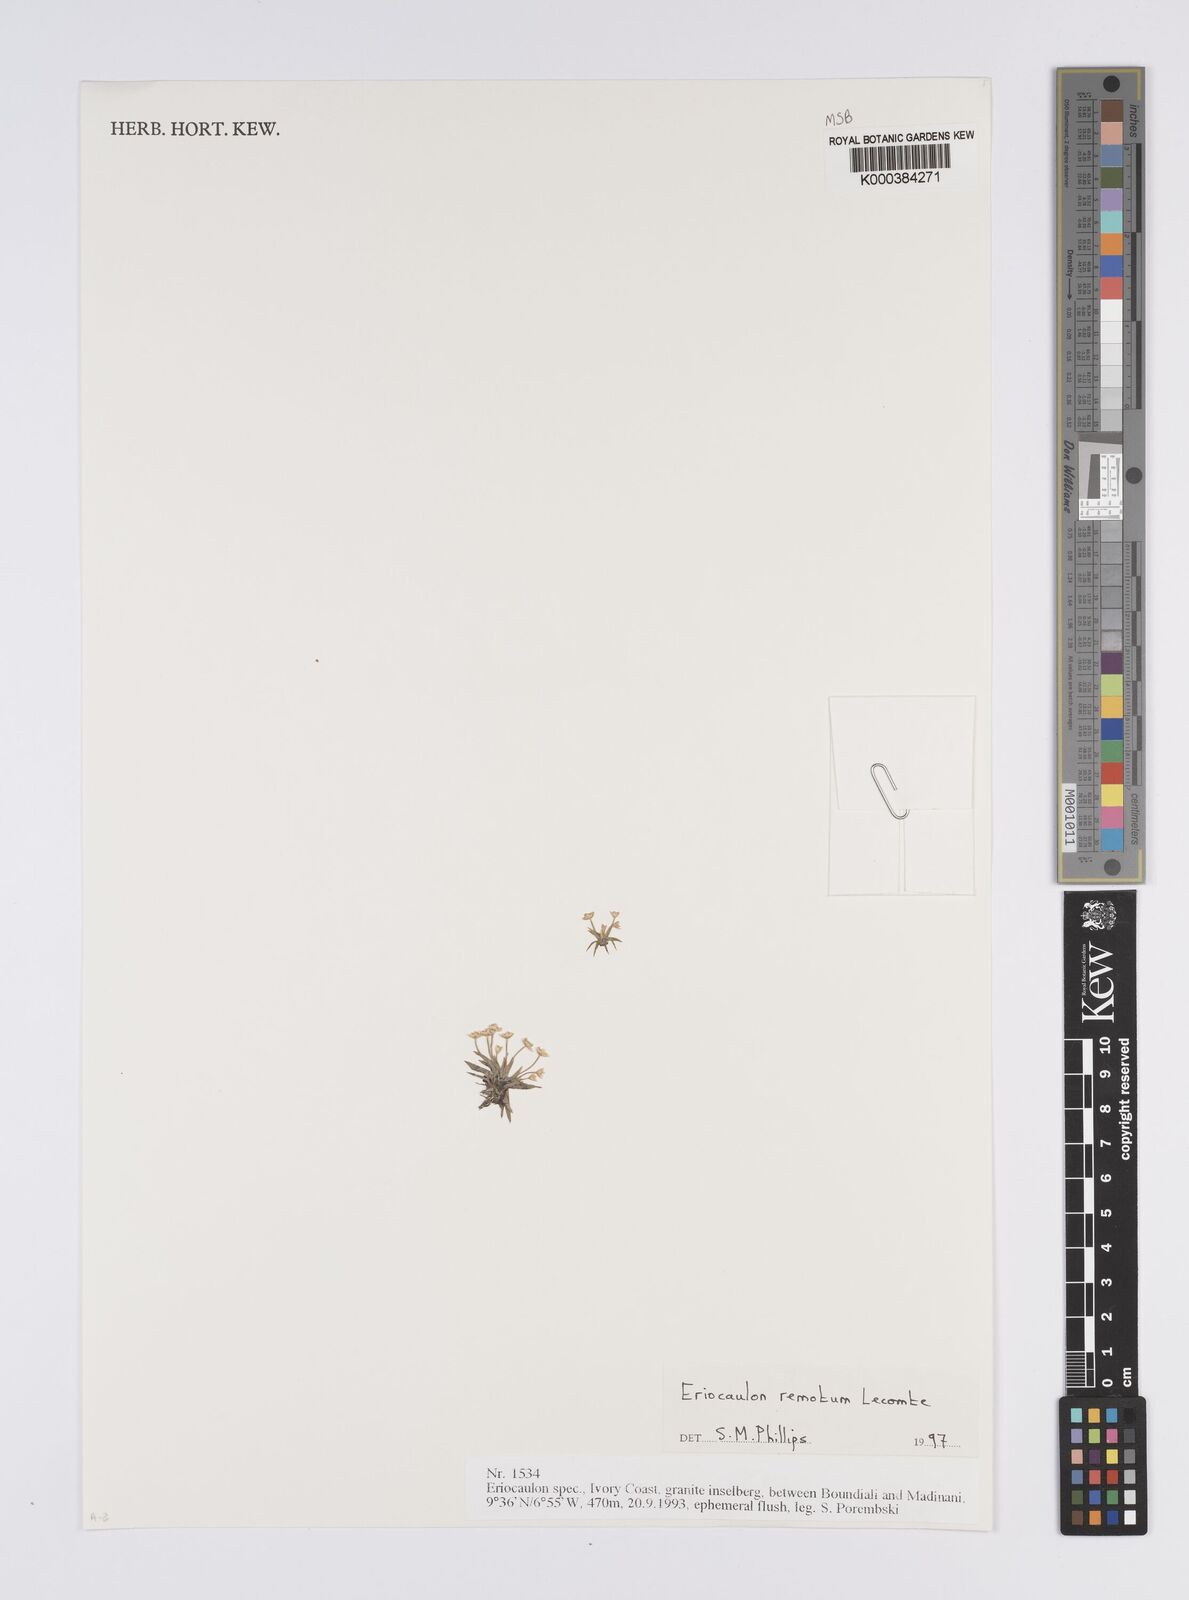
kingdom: Plantae
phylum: Tracheophyta
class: Liliopsida
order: Poales
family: Eriocaulaceae
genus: Eriocaulon
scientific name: Eriocaulon remotum
